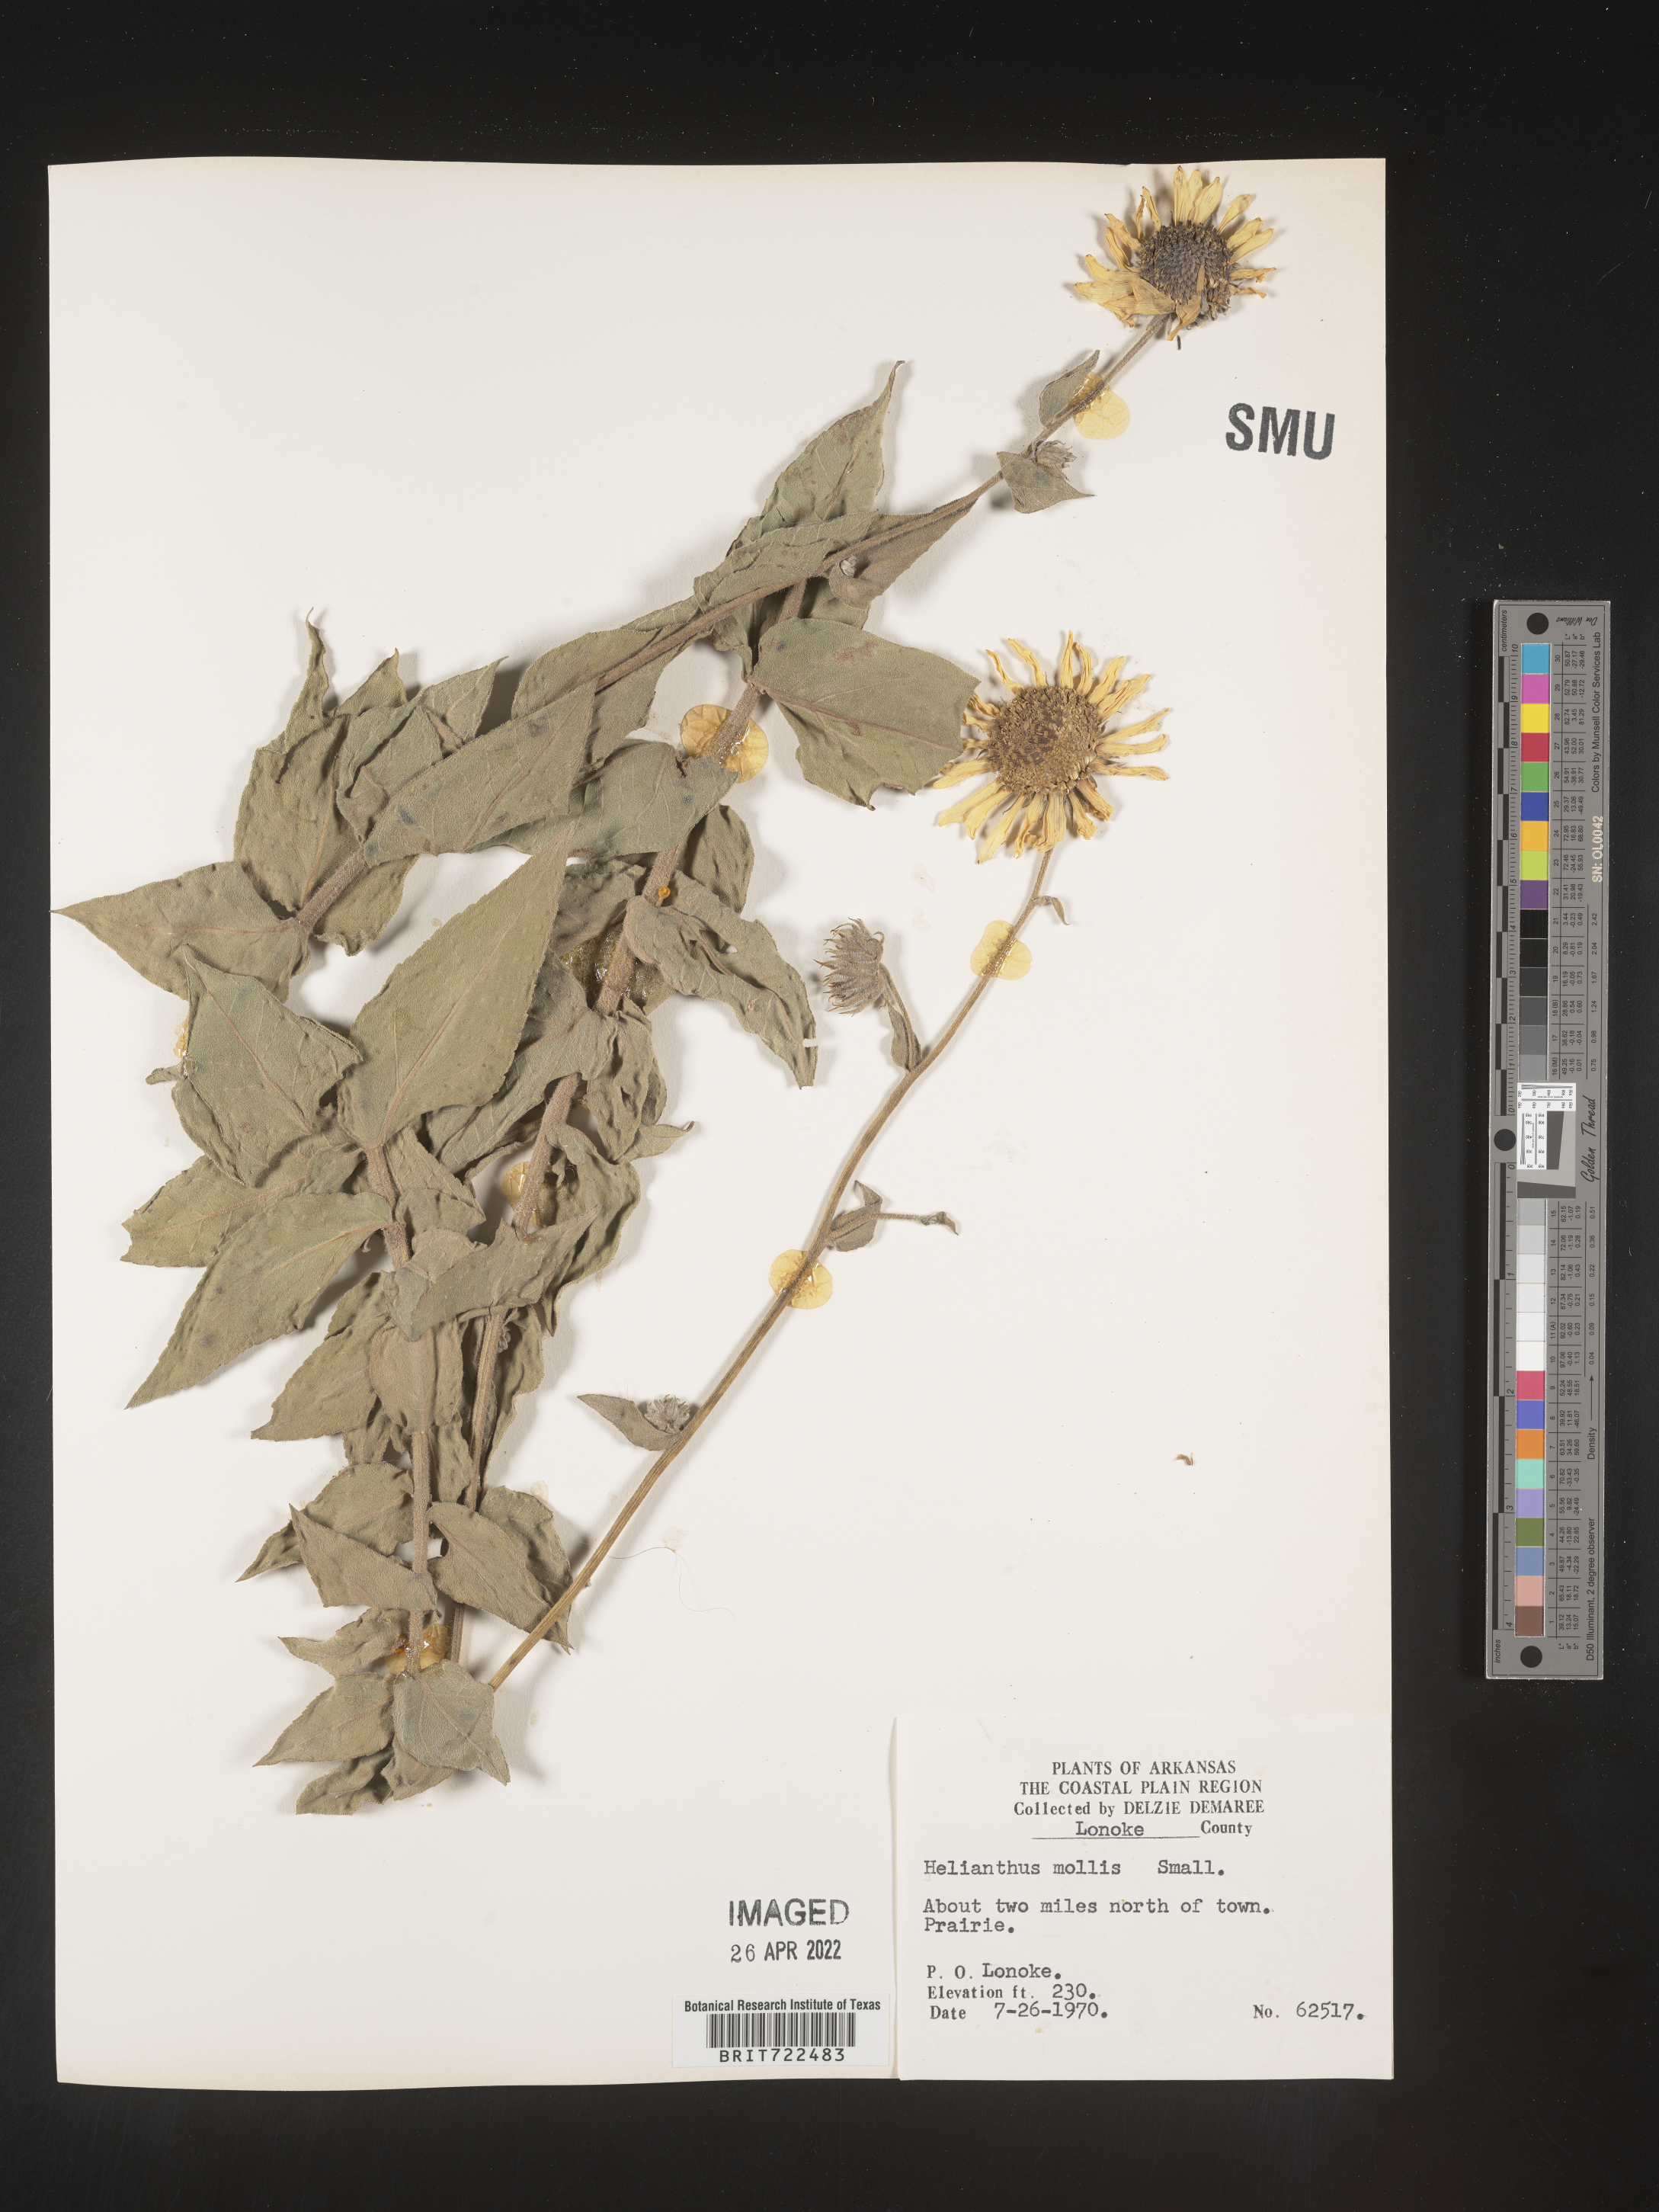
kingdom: Plantae
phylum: Tracheophyta
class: Magnoliopsida
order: Asterales
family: Asteraceae
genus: Helianthus
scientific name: Helianthus mollis
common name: Ashy sunflower
